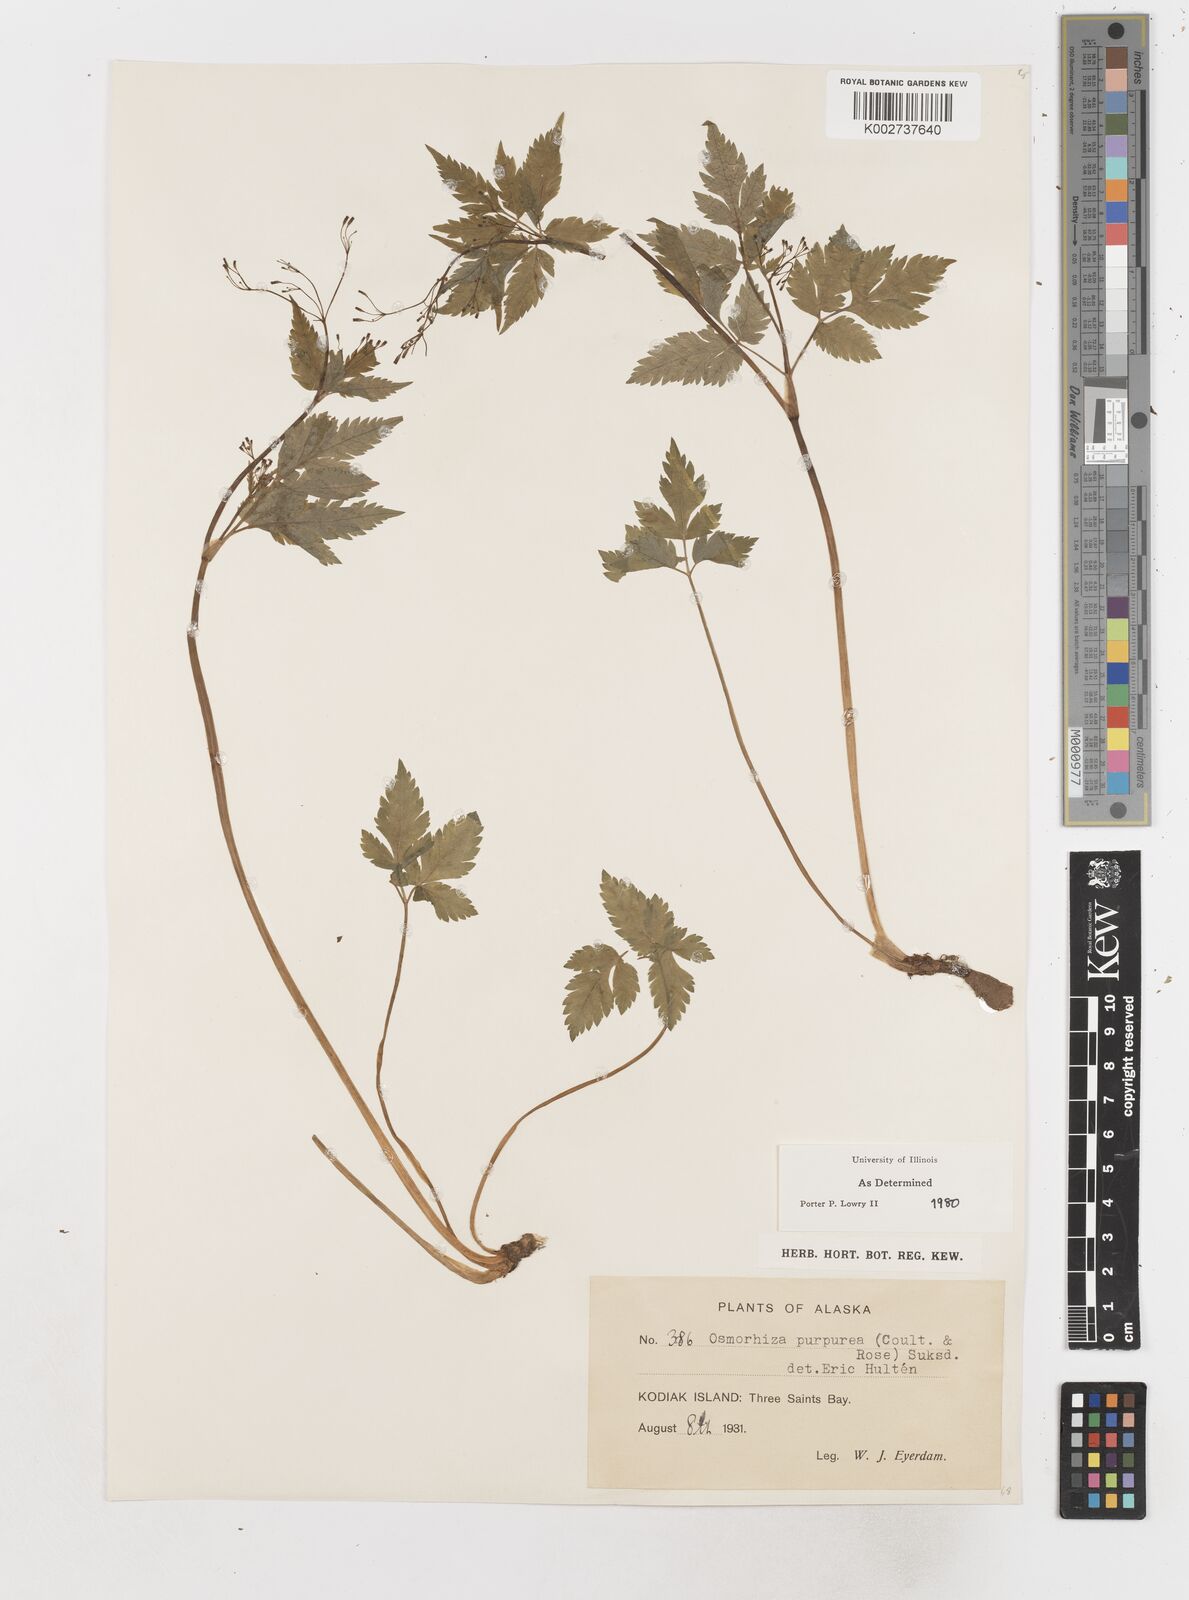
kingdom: Plantae
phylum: Tracheophyta
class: Magnoliopsida
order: Apiales
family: Apiaceae
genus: Osmorhiza
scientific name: Osmorhiza purpurea
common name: Purple sweet cicely
